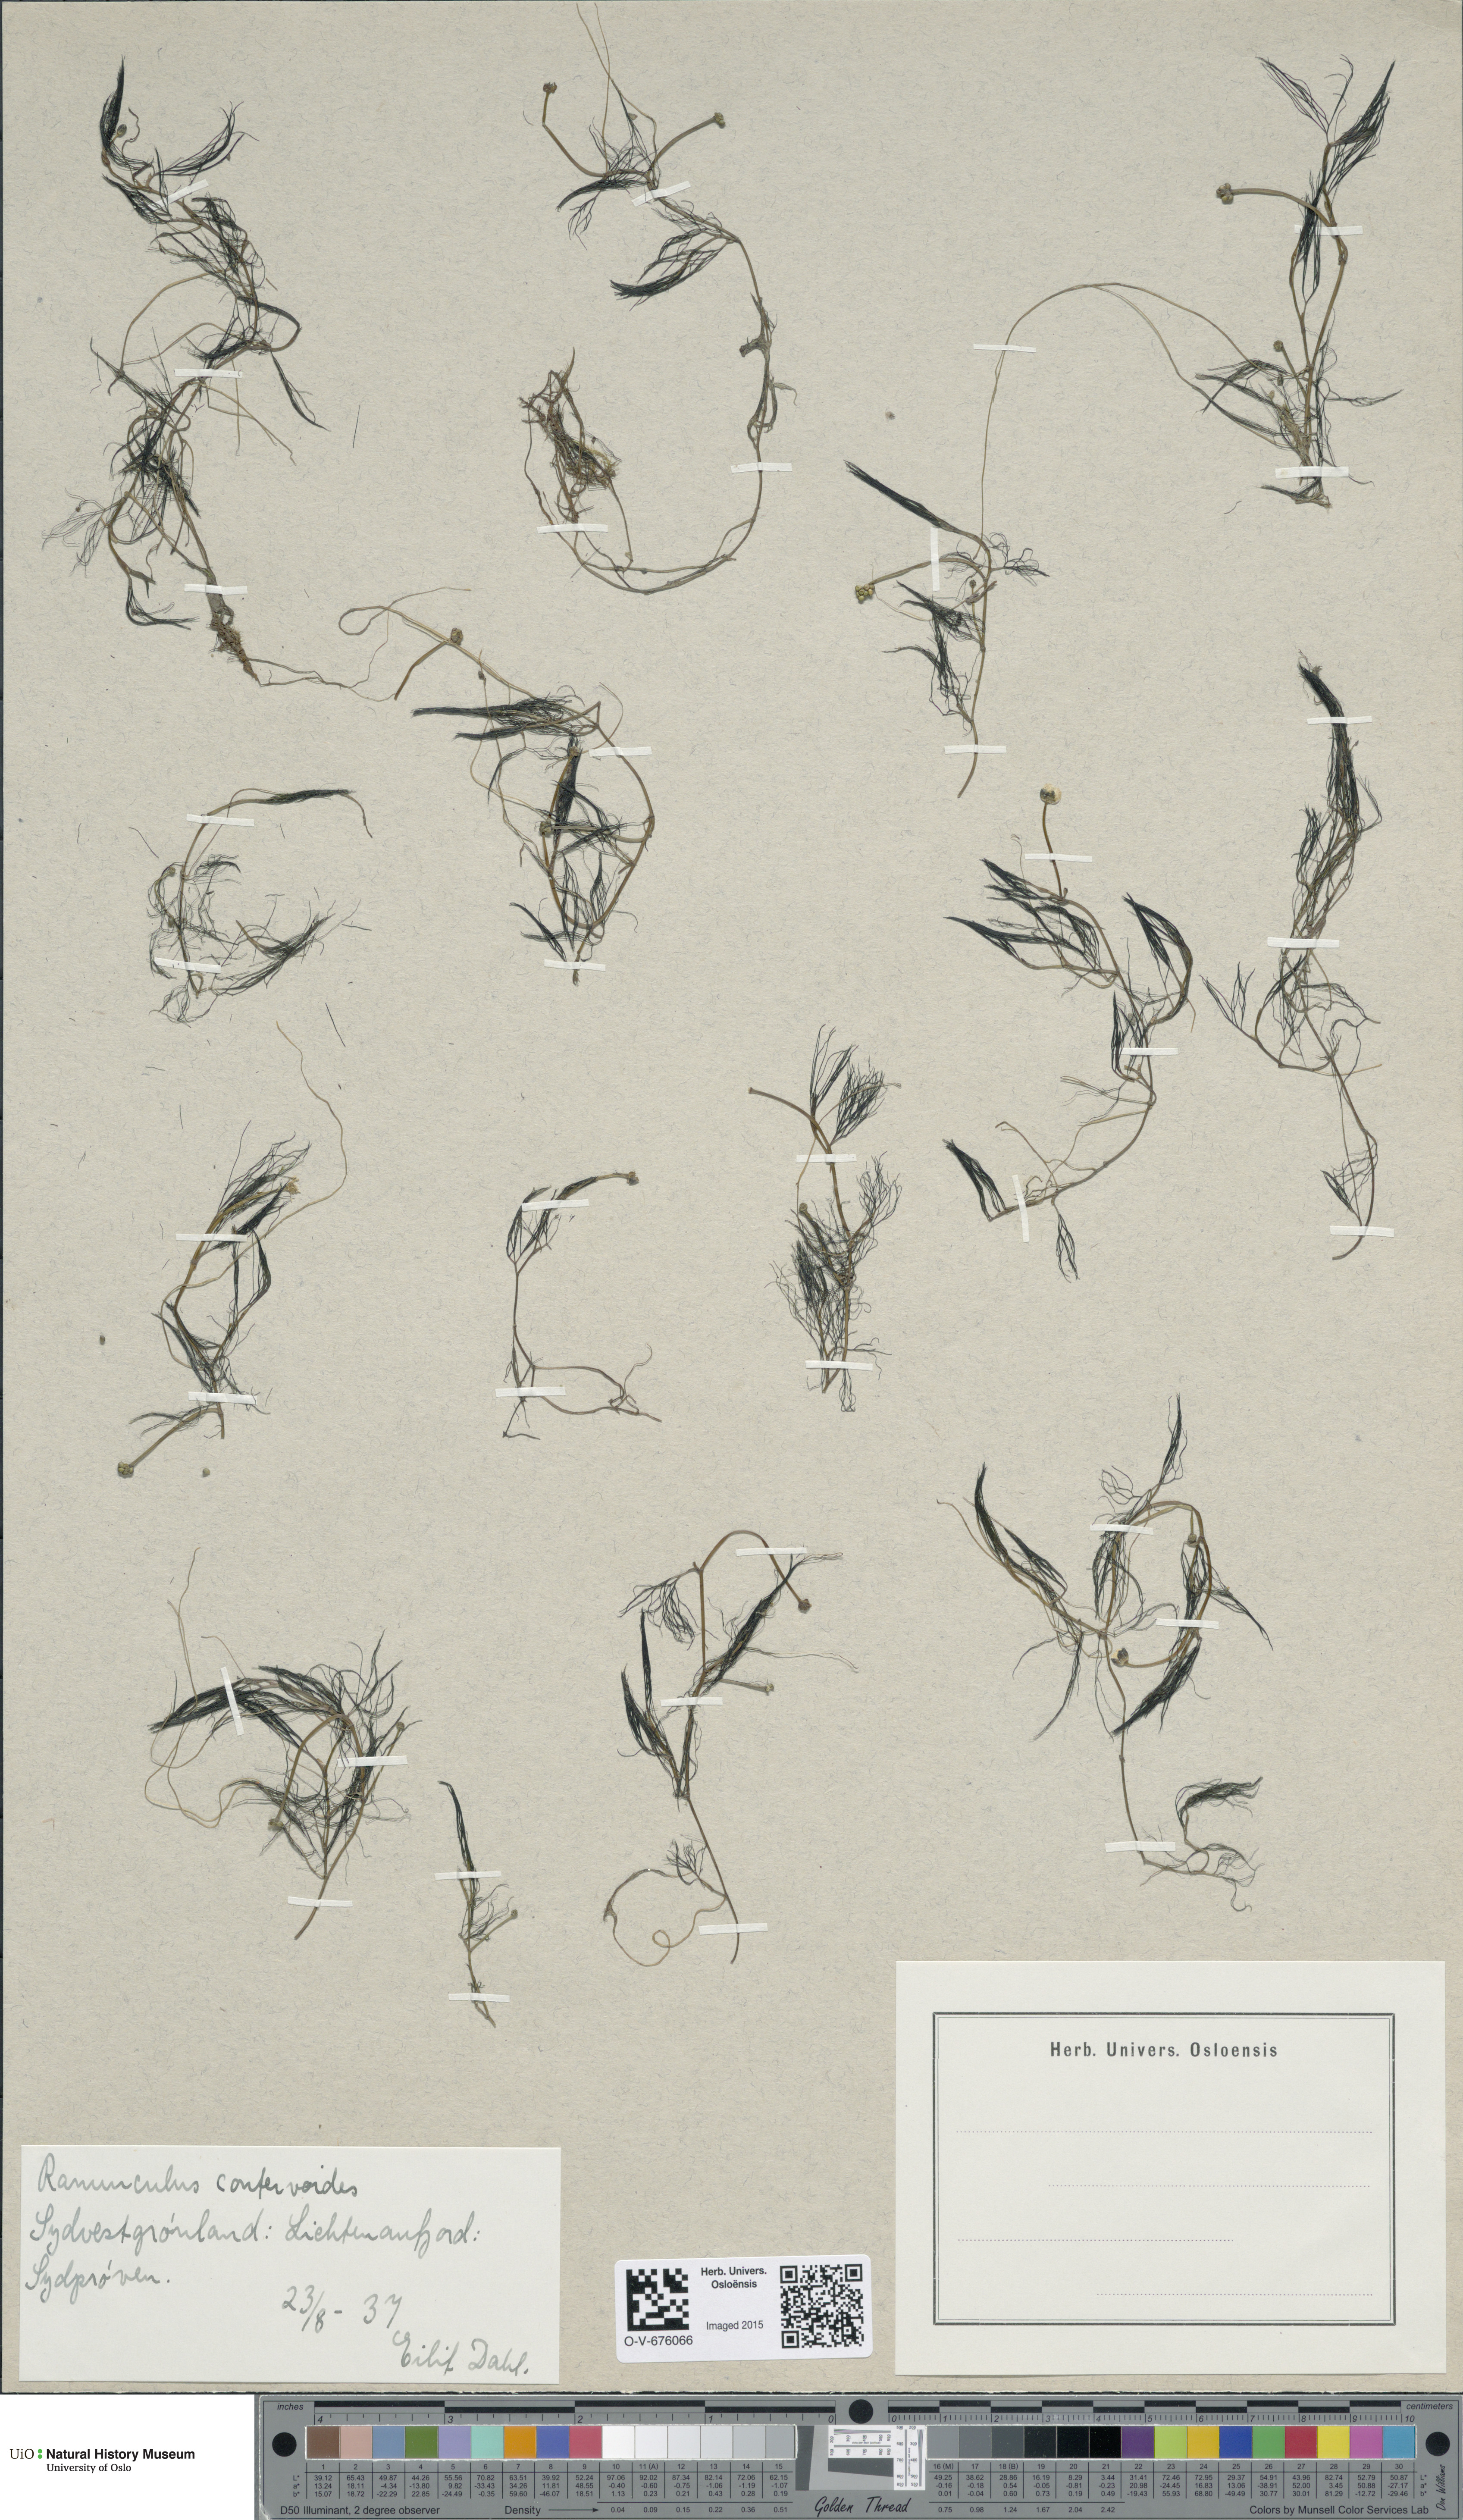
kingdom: Plantae
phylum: Tracheophyta
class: Magnoliopsida
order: Ranunculales
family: Ranunculaceae
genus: Ranunculus
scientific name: Ranunculus confervoides
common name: Delicate buttercup
